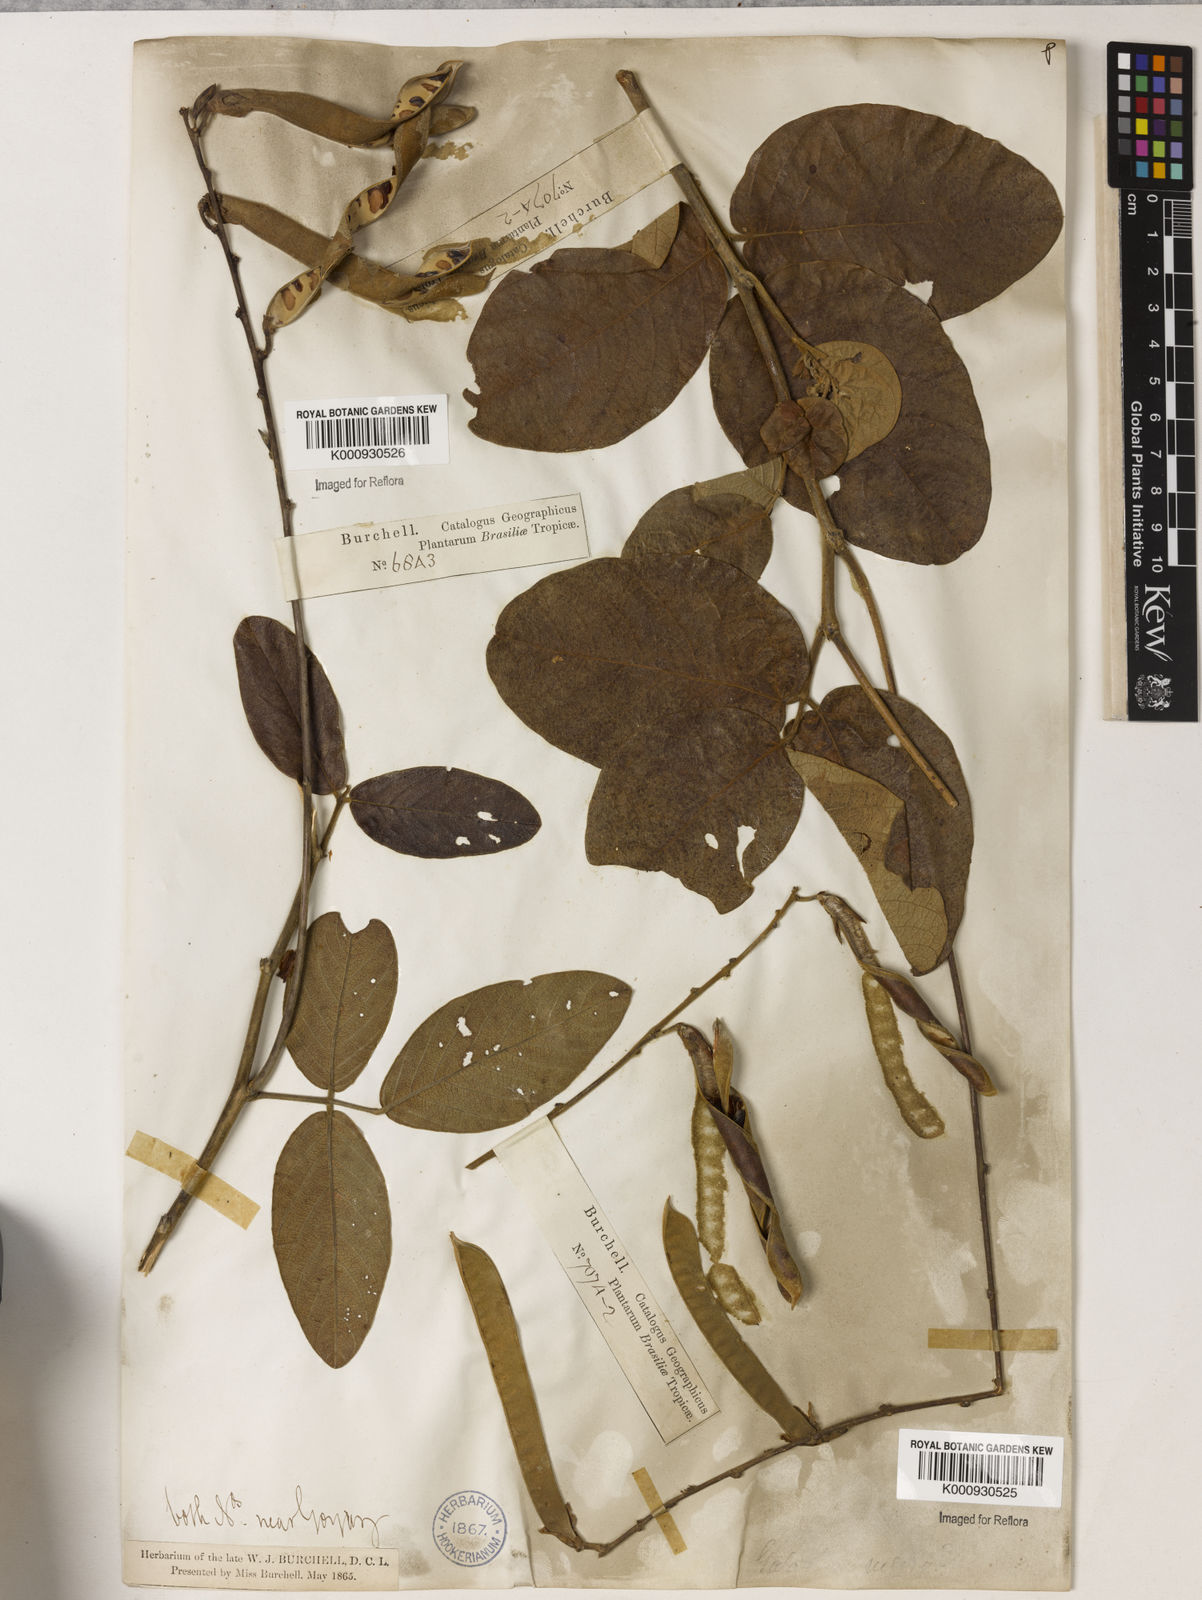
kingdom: Plantae
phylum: Tracheophyta
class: Magnoliopsida
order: Fabales
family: Fabaceae
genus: Galactia
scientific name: Galactia
